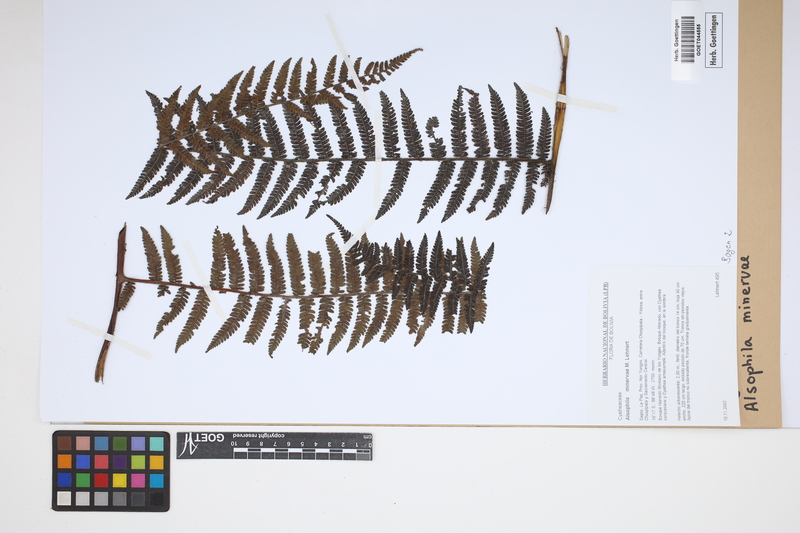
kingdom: Plantae
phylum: Tracheophyta
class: Polypodiopsida
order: Cyatheales
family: Cyatheaceae
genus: Alsophila
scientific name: Alsophila minervae
